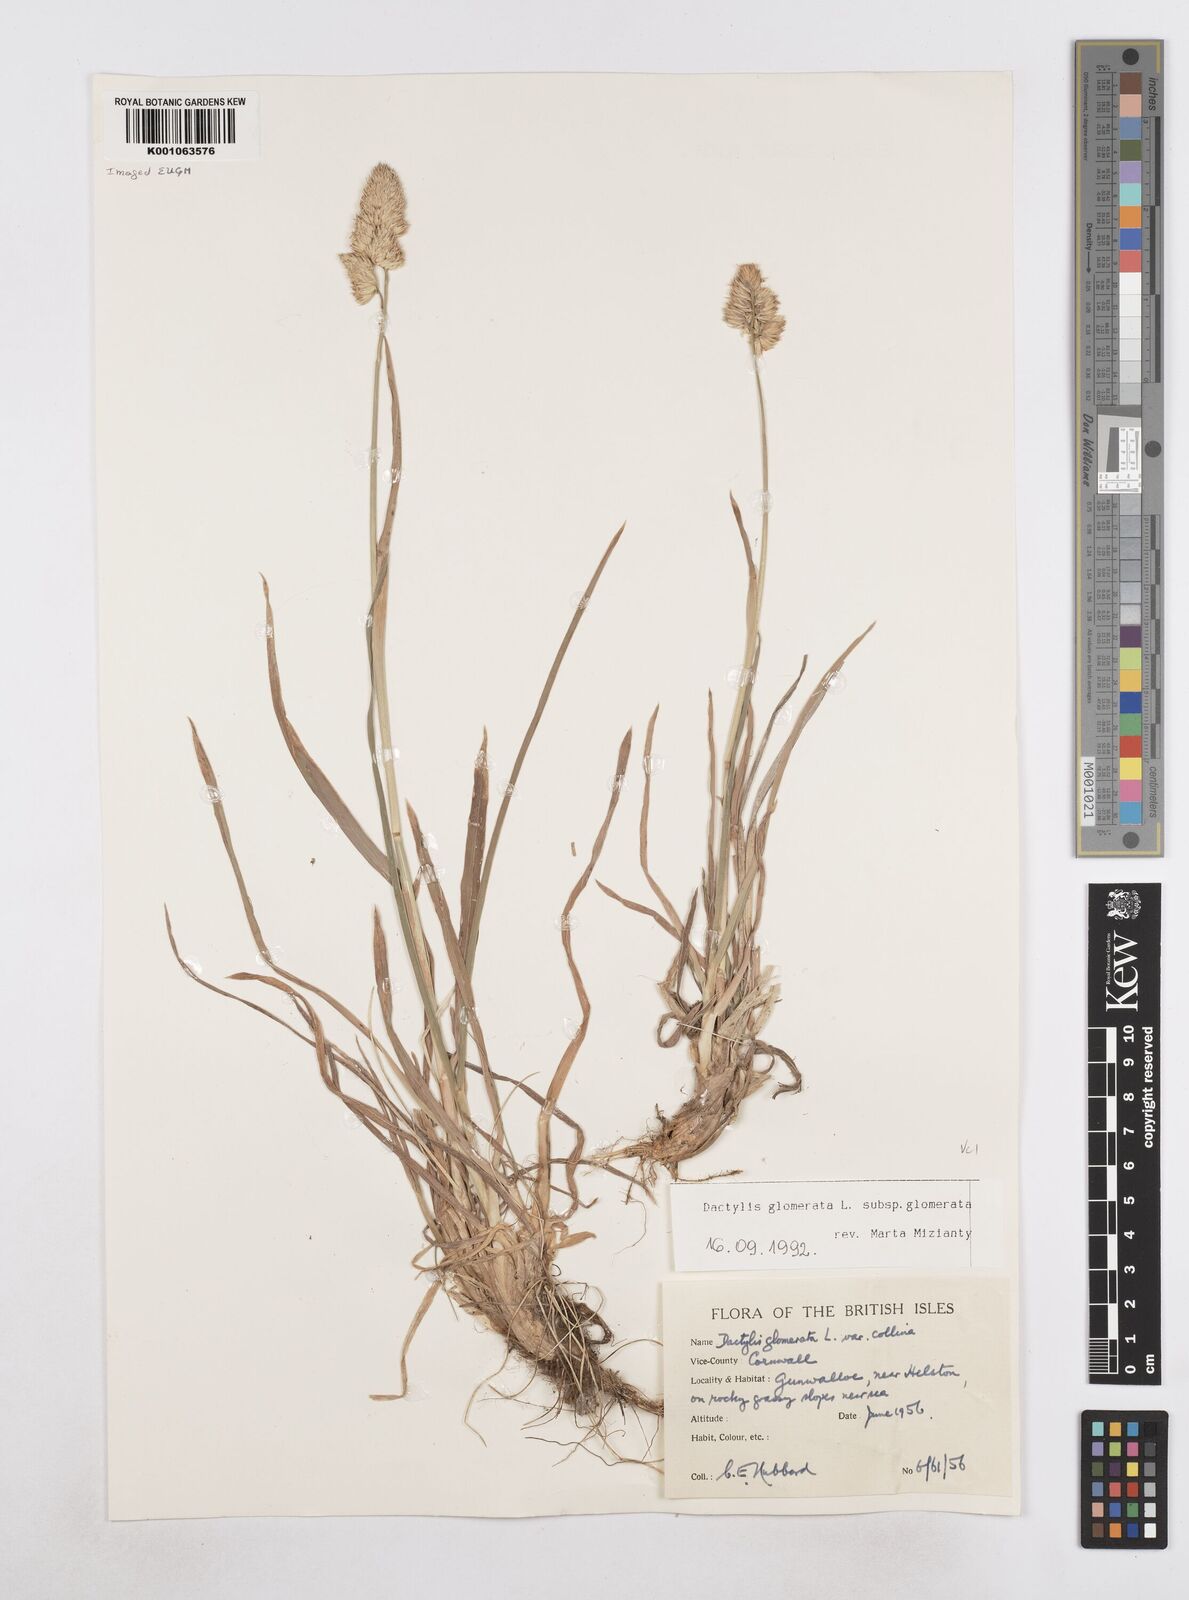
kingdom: Plantae
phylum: Tracheophyta
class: Liliopsida
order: Poales
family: Poaceae
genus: Dactylis
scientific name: Dactylis glomerata
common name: Orchardgrass
